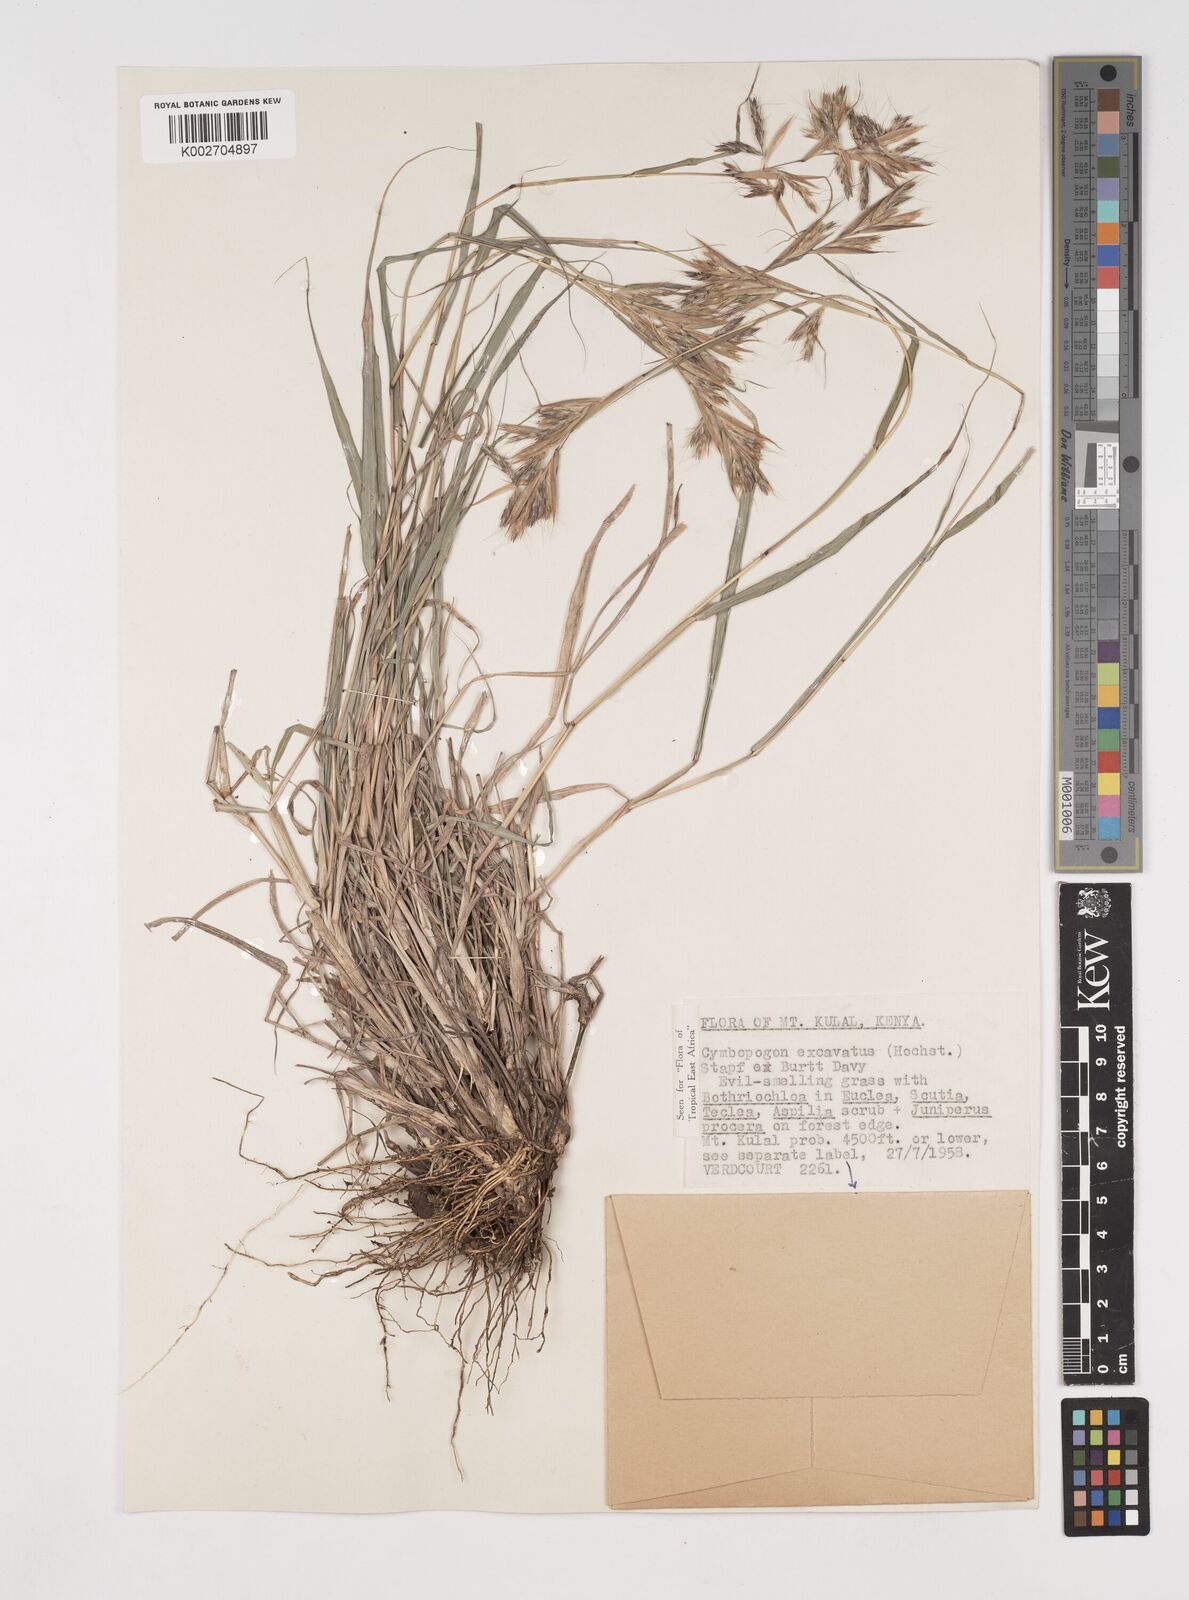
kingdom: Plantae
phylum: Tracheophyta
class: Liliopsida
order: Poales
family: Poaceae
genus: Cymbopogon
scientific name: Cymbopogon caesius
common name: Kachi grass
